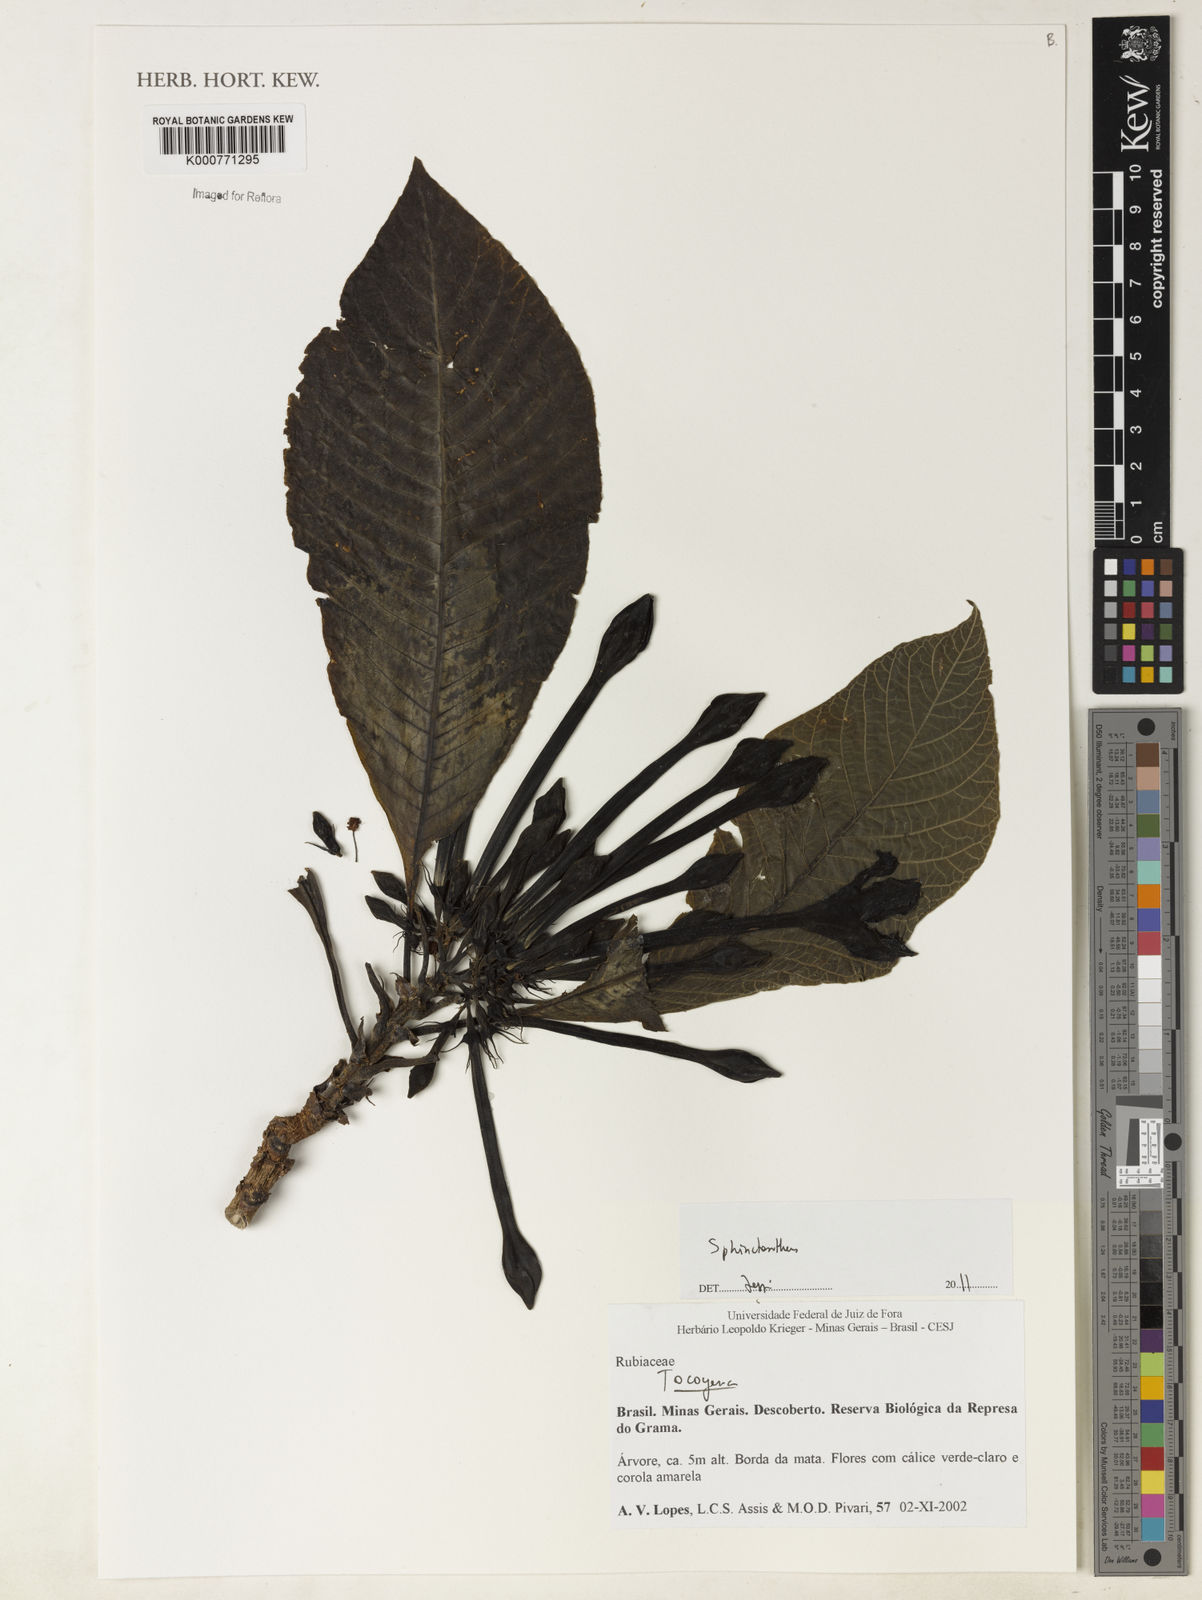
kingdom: Plantae
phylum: Tracheophyta
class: Magnoliopsida
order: Gentianales
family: Rubiaceae
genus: Sphinctanthus
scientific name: Sphinctanthus
